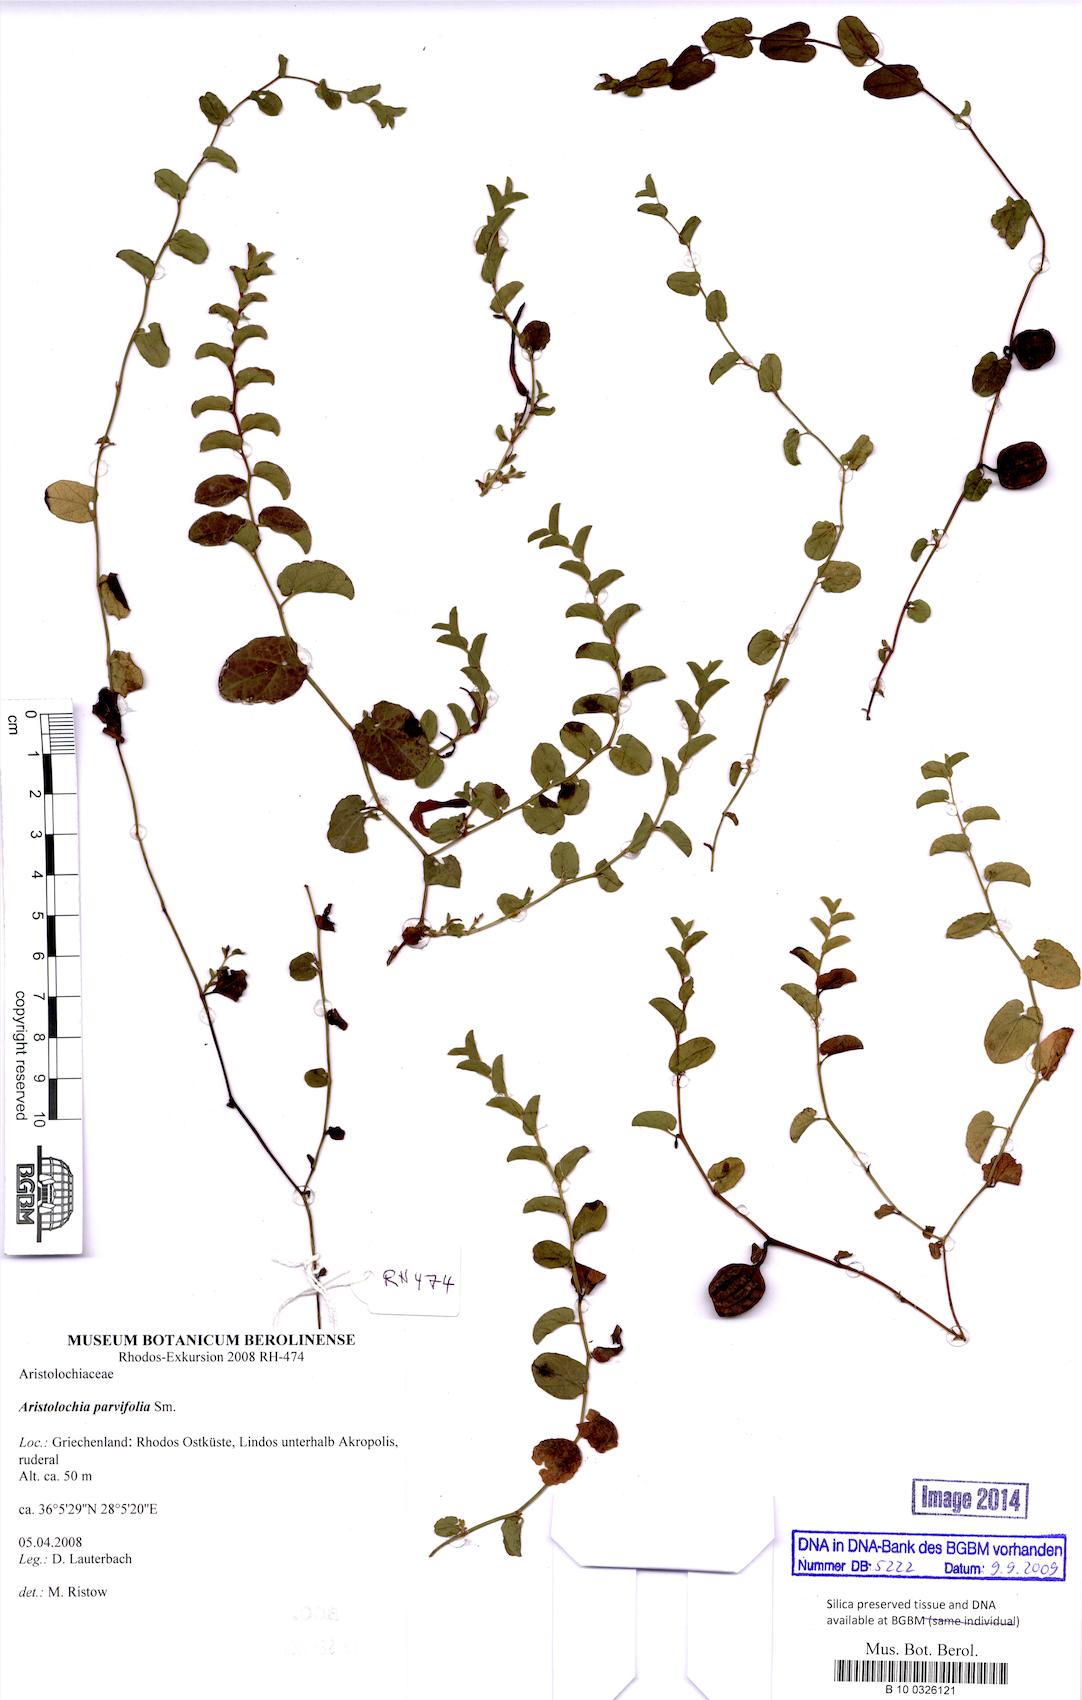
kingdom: Plantae
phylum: Tracheophyta
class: Magnoliopsida
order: Piperales
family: Aristolochiaceae
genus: Aristolochia
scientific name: Aristolochia parvifolia
